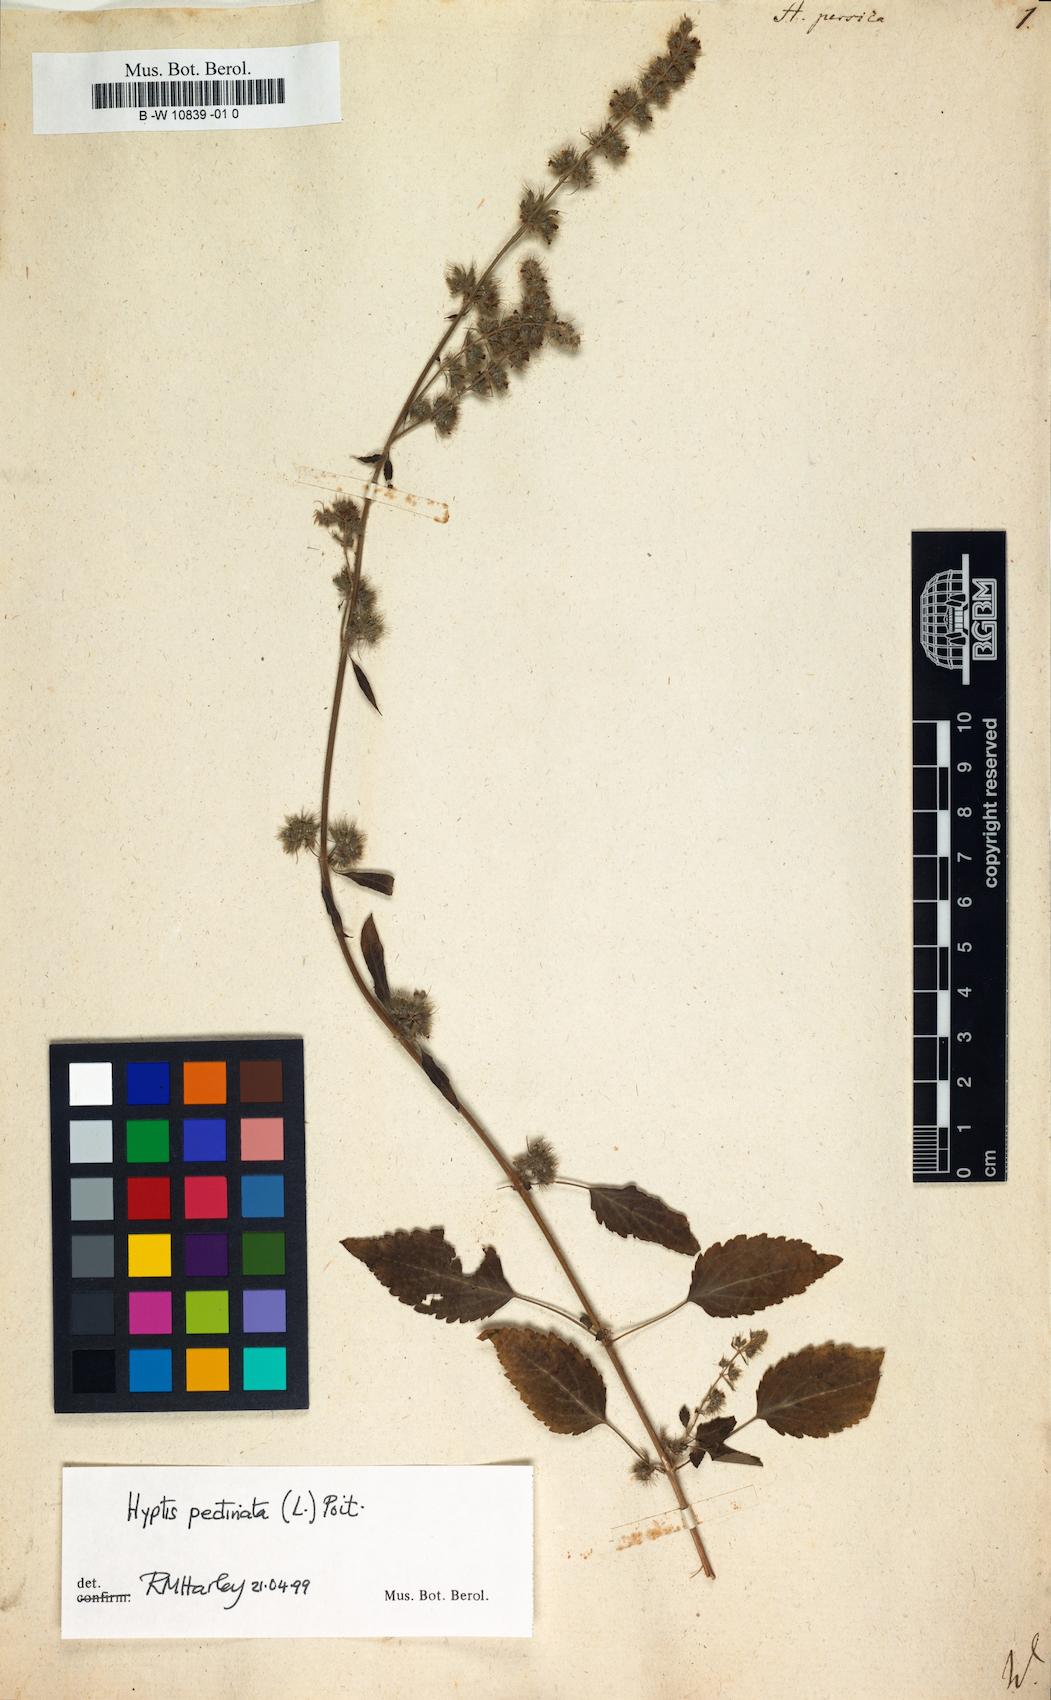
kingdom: Plantae
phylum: Tracheophyta
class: Magnoliopsida
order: Lamiales
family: Lamiaceae
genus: Mesosphaerum
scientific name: Mesosphaerum pectinatum
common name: Comb hyptis
